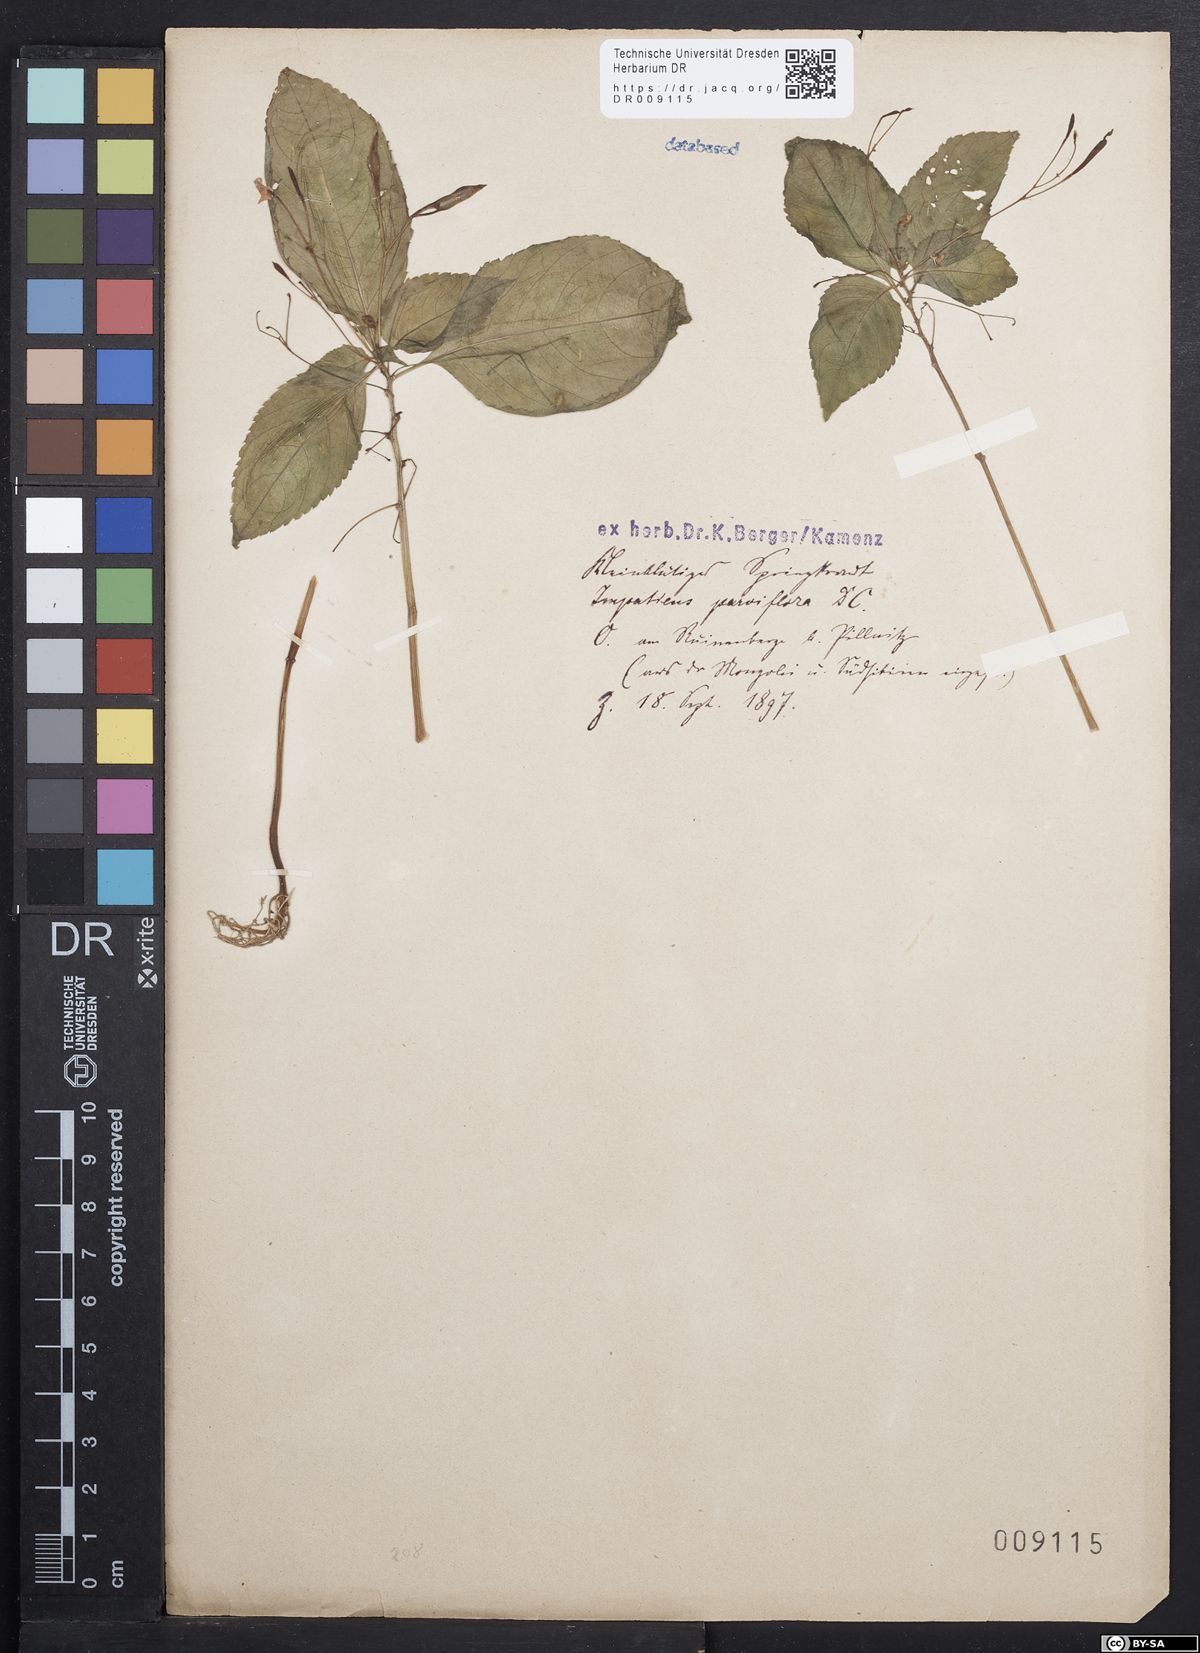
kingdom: Plantae
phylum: Tracheophyta
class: Magnoliopsida
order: Ericales
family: Balsaminaceae
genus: Impatiens
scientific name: Impatiens parviflora
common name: Small balsam
